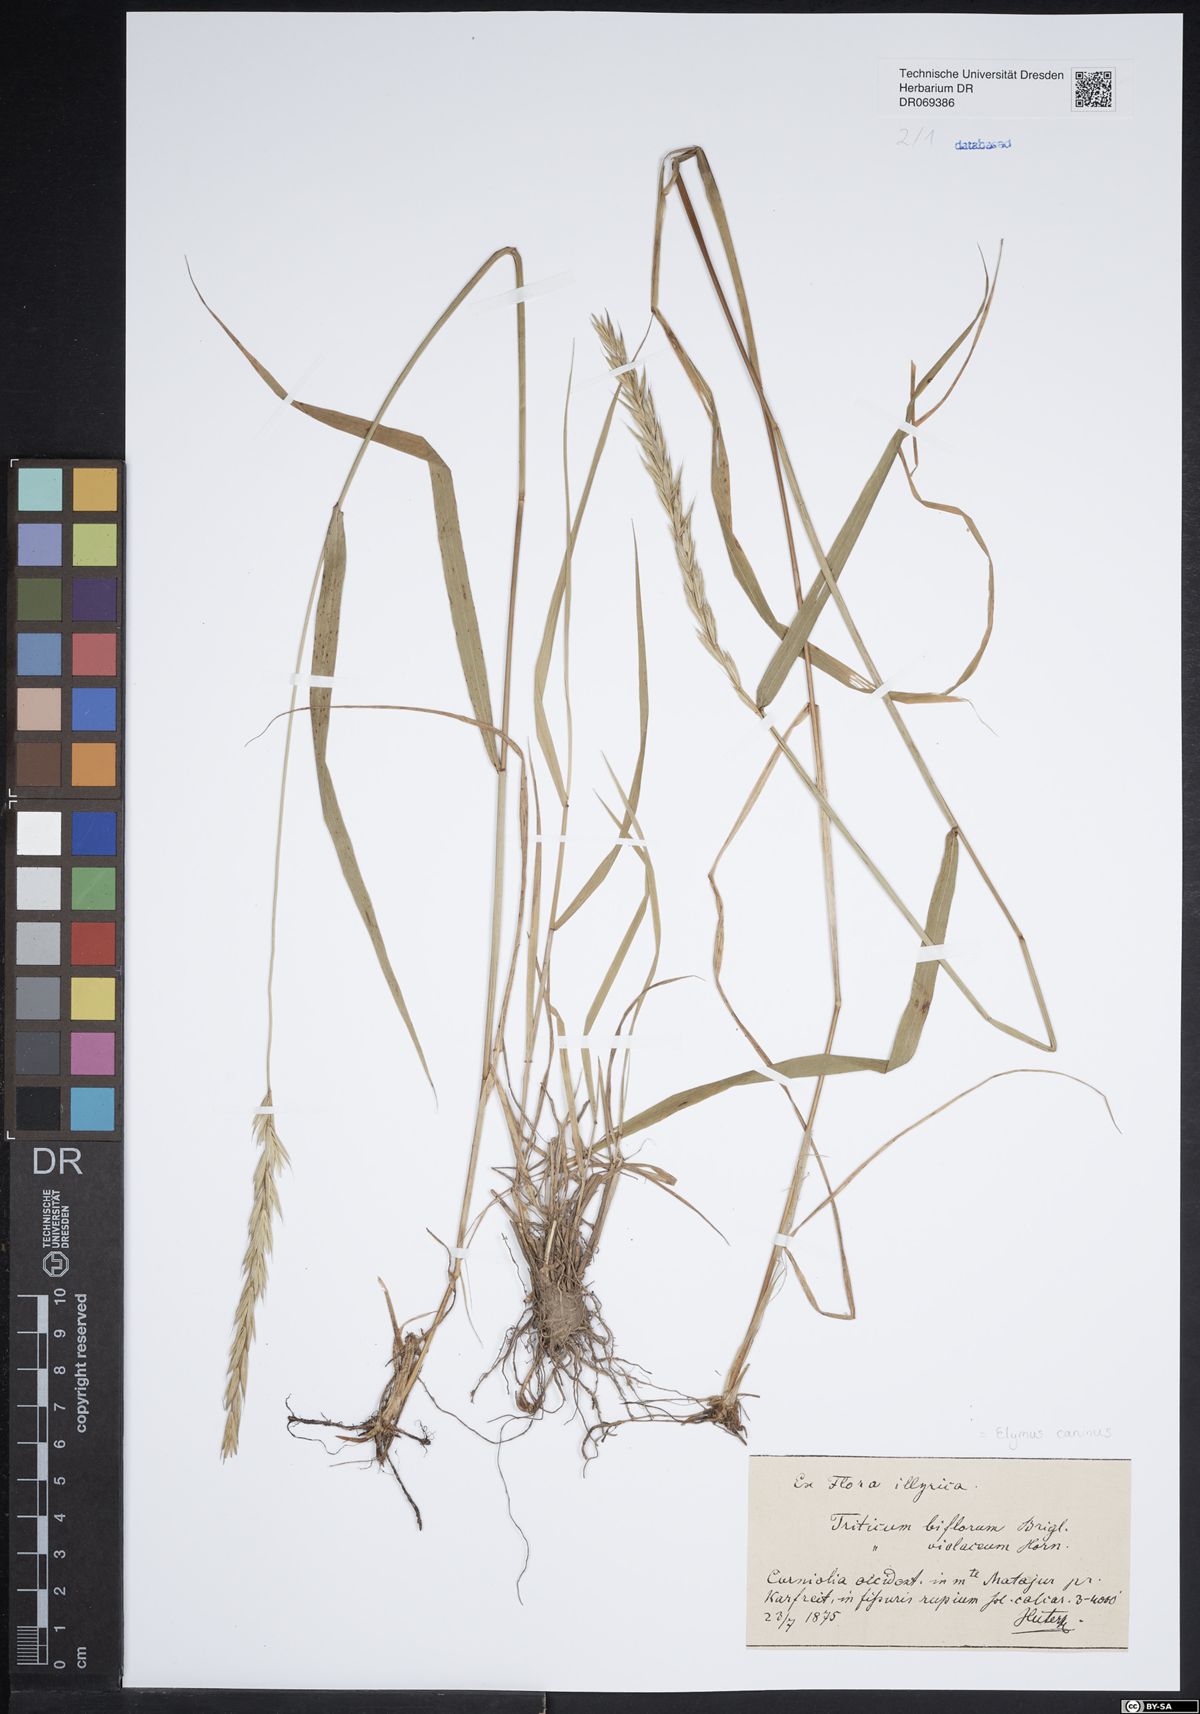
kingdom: Plantae
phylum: Tracheophyta
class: Liliopsida
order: Poales
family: Poaceae
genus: Elymus
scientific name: Elymus caninus
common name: Bearded couch
